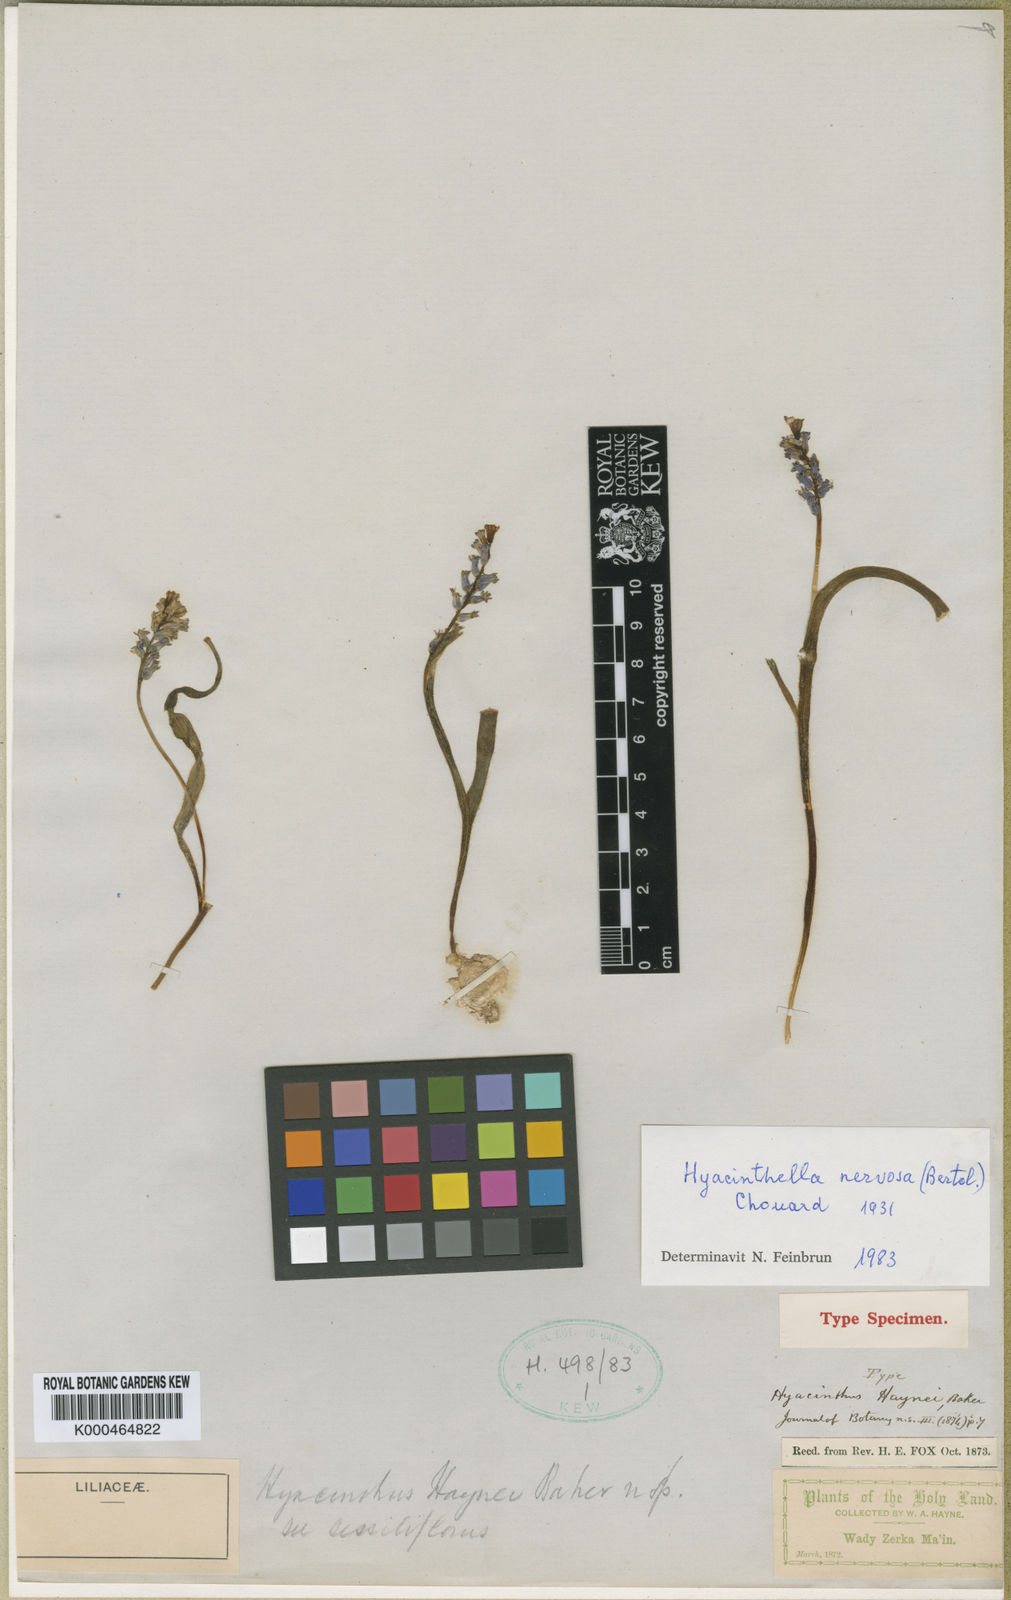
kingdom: Plantae
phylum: Tracheophyta
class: Liliopsida
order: Asparagales
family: Asparagaceae
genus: Hyacinthella
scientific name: Hyacinthella nervosa
